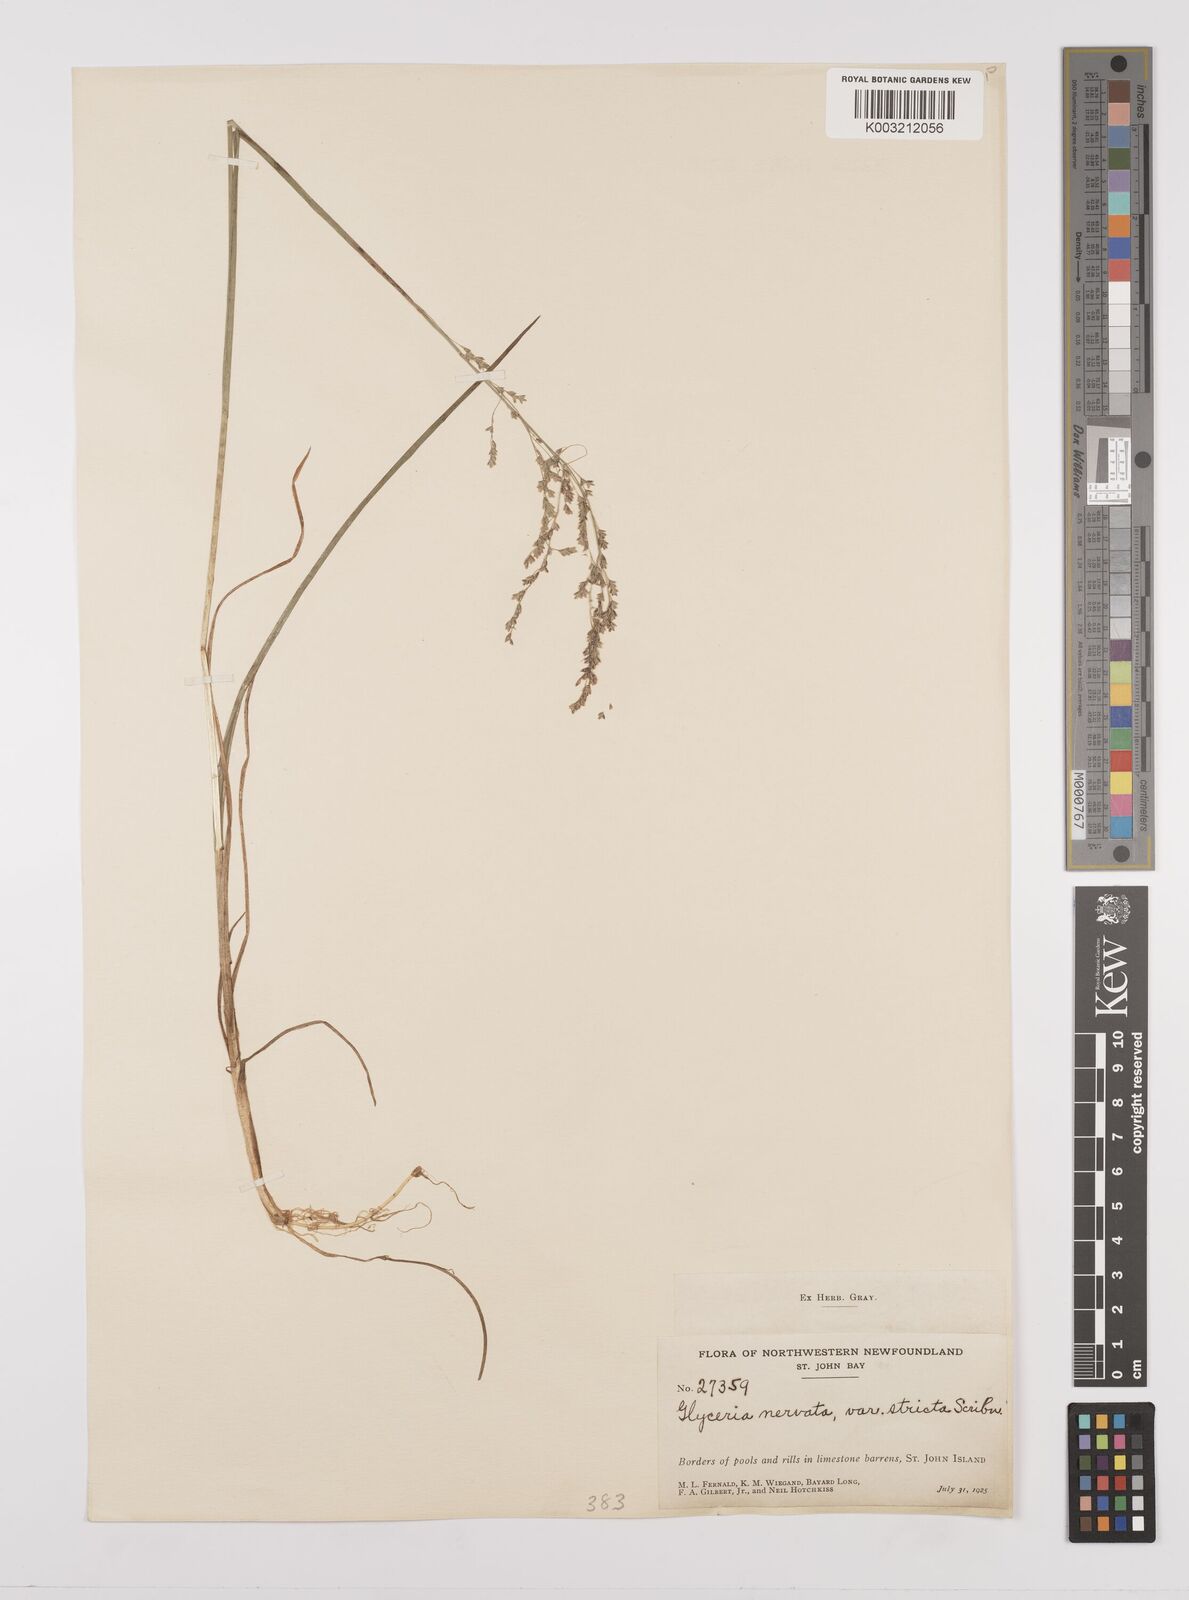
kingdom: Plantae
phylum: Tracheophyta
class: Liliopsida
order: Poales
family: Poaceae
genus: Glyceria
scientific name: Glyceria striata
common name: Fowl manna grass
